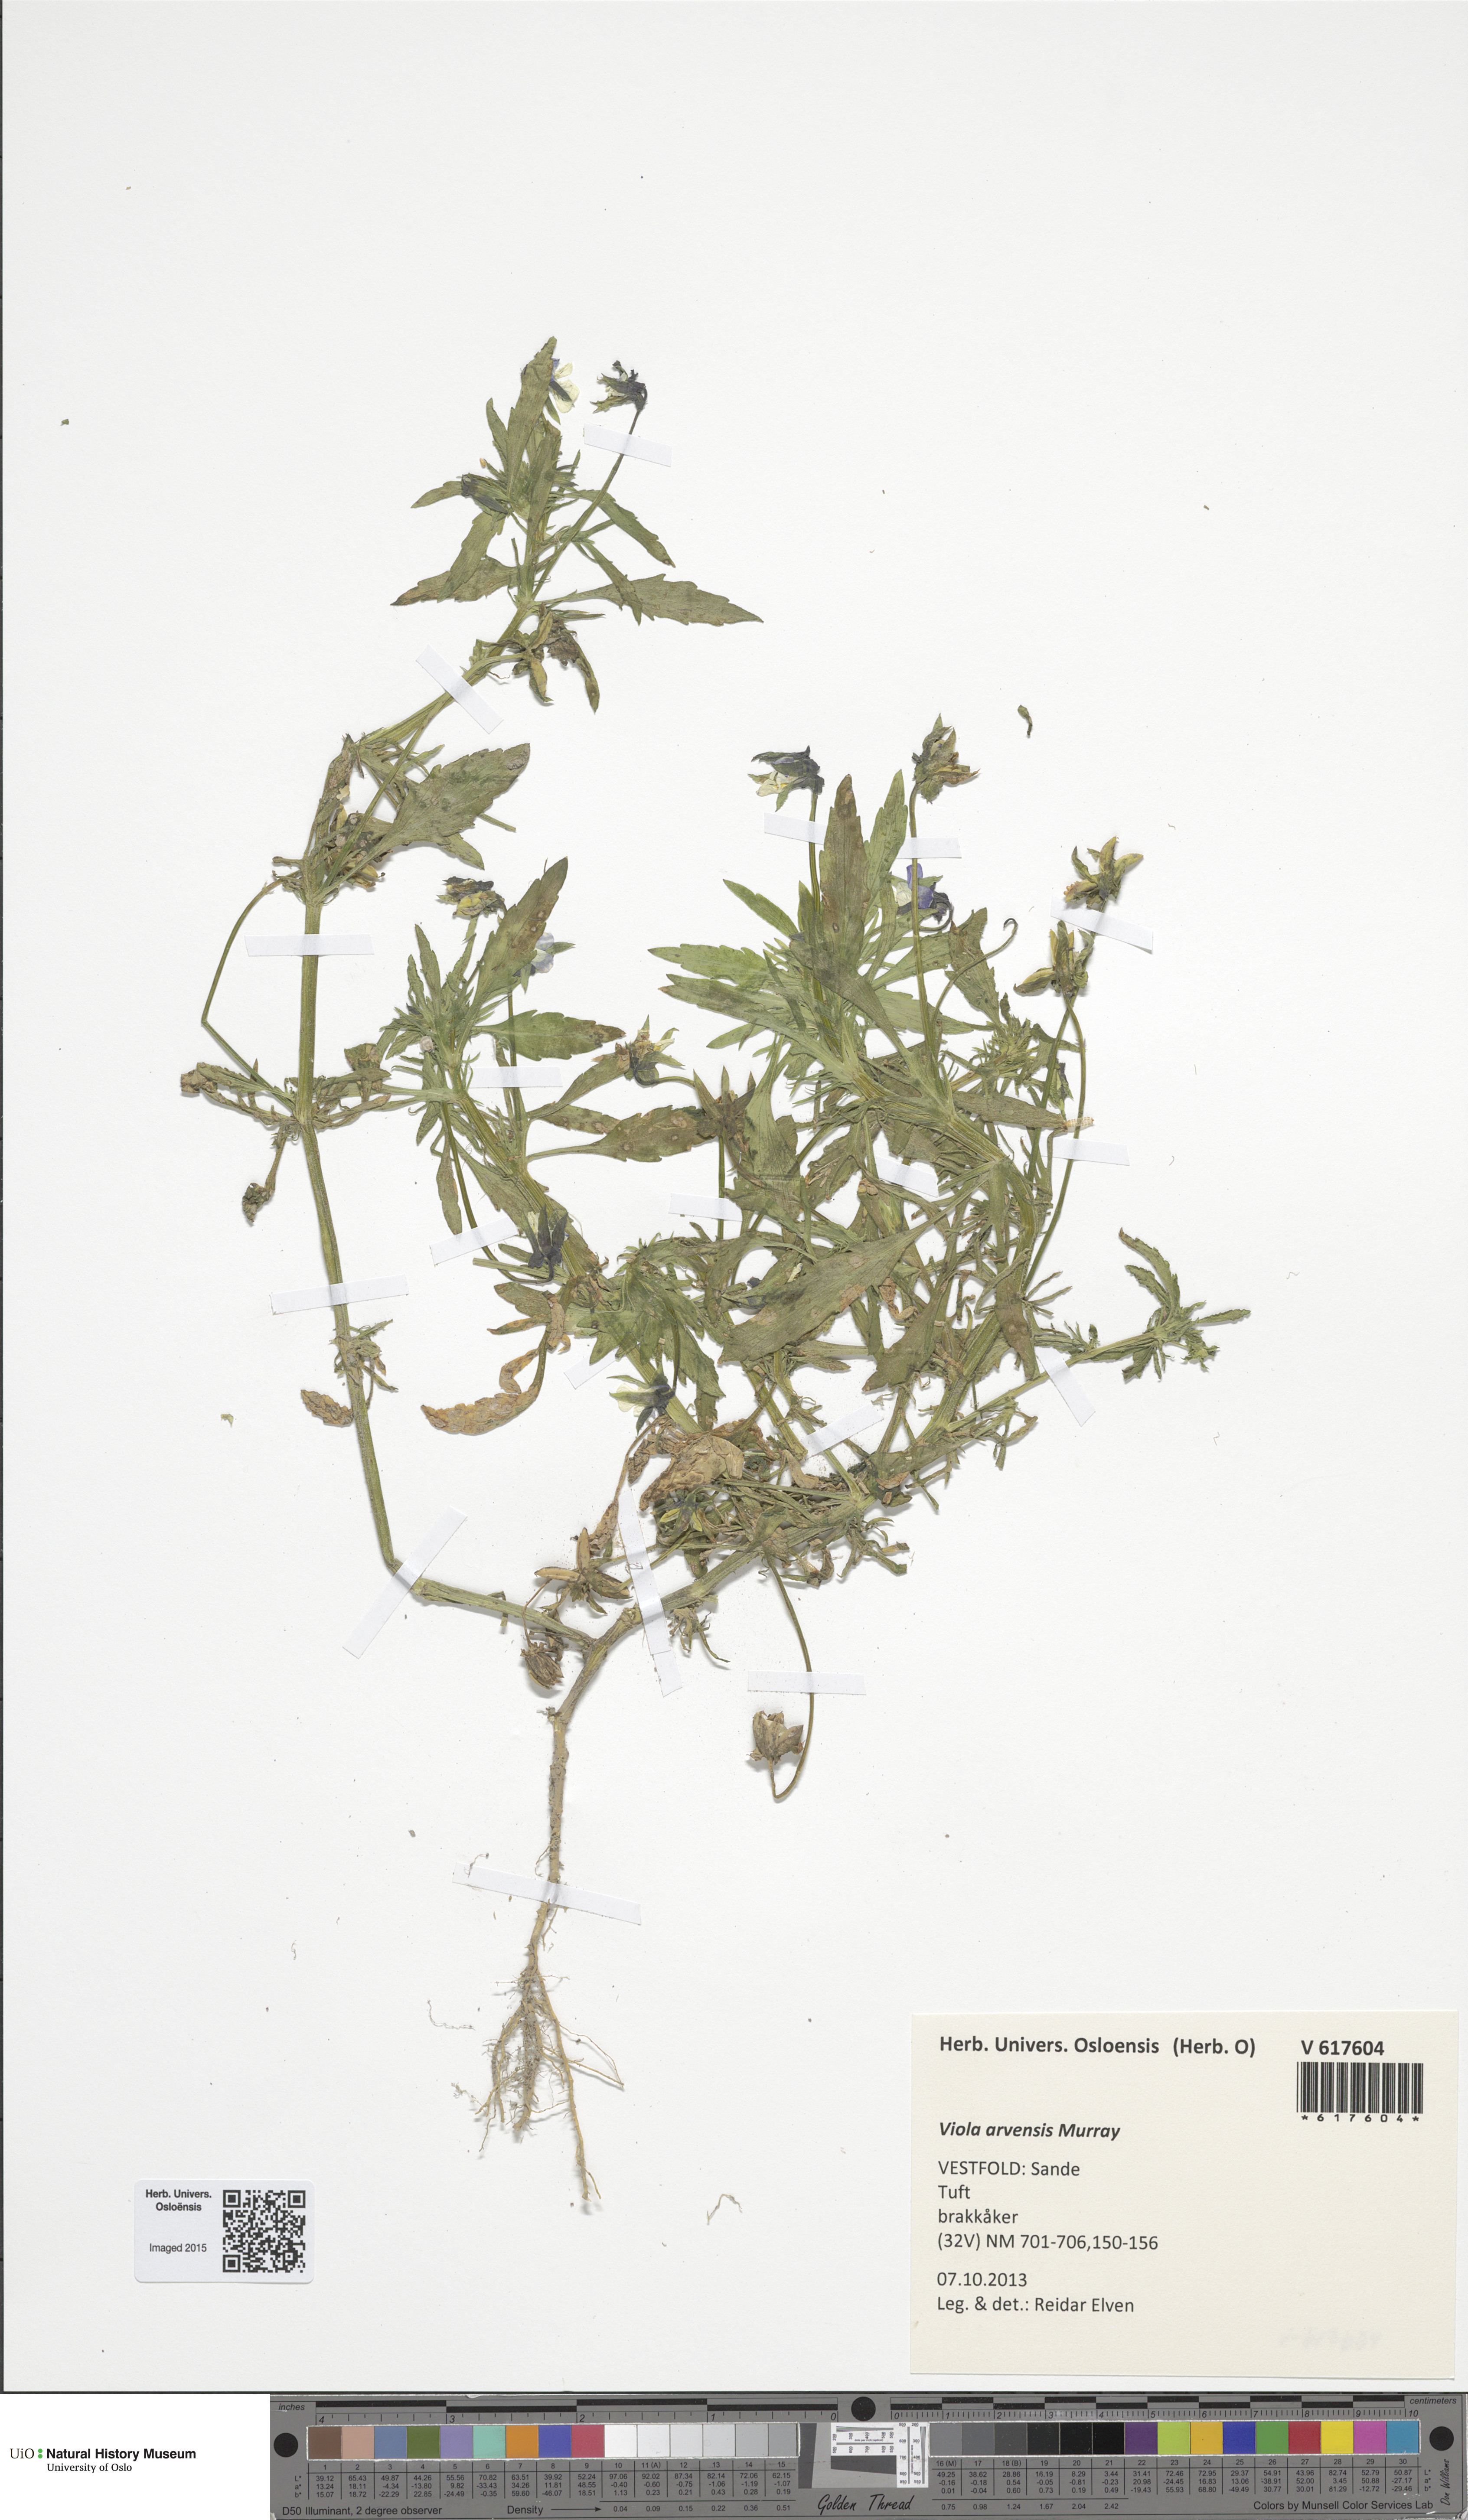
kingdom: Plantae
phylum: Tracheophyta
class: Magnoliopsida
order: Malpighiales
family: Violaceae
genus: Viola
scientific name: Viola arvensis
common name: Field pansy
